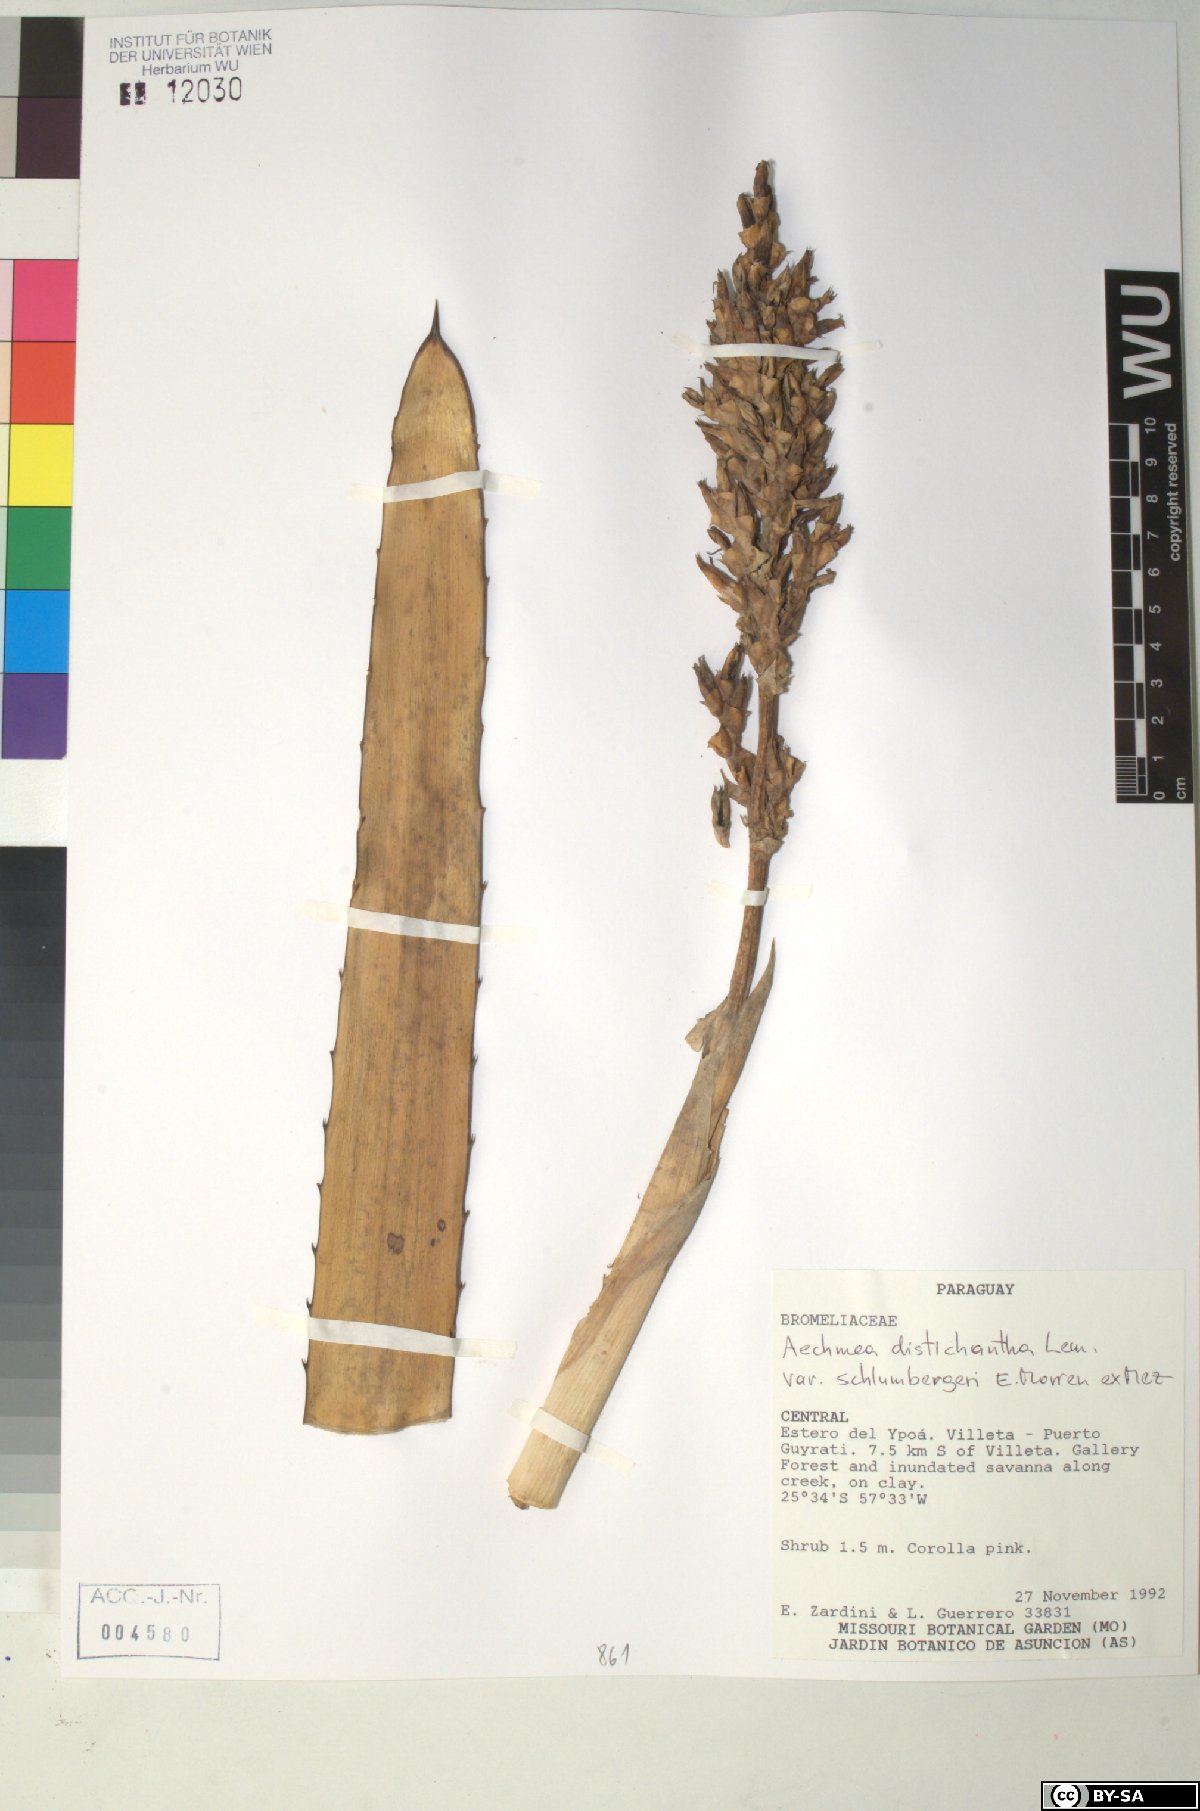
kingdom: Plantae
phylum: Tracheophyta
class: Liliopsida
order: Poales
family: Bromeliaceae
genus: Aechmea
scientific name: Aechmea distichantha
